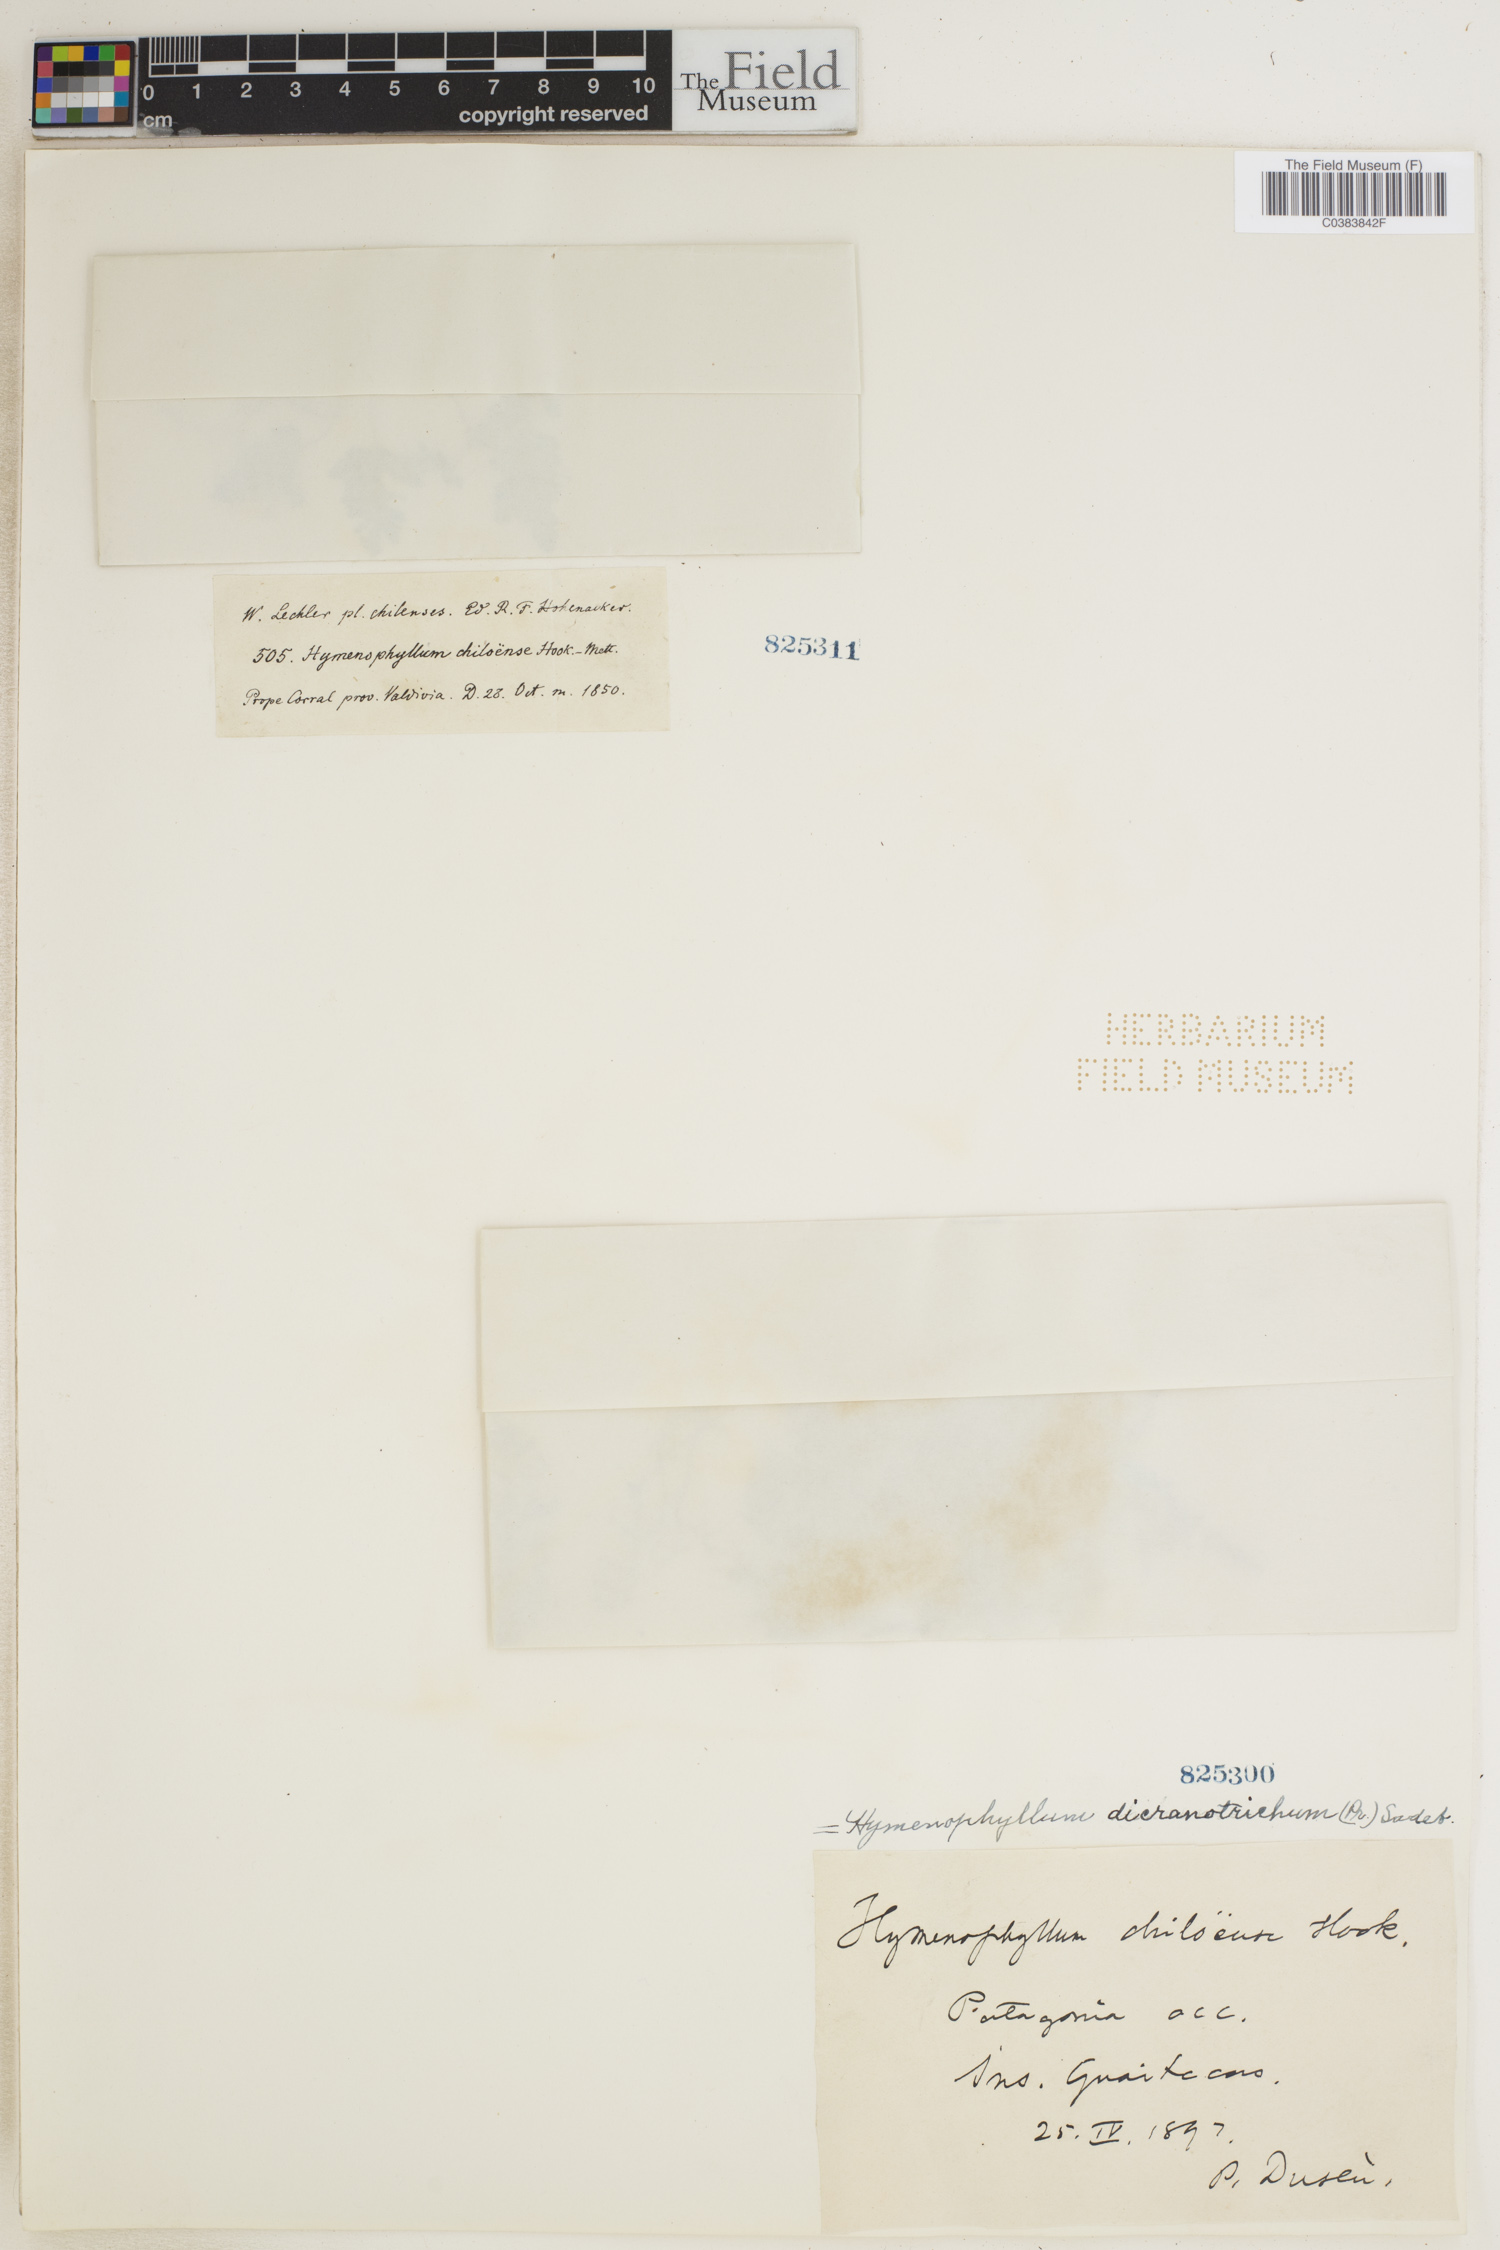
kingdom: Plantae
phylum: Tracheophyta
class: Polypodiopsida
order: Hymenophyllales
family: Hymenophyllaceae
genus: Hymenophyllum
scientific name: Hymenophyllum dicranotrichum
